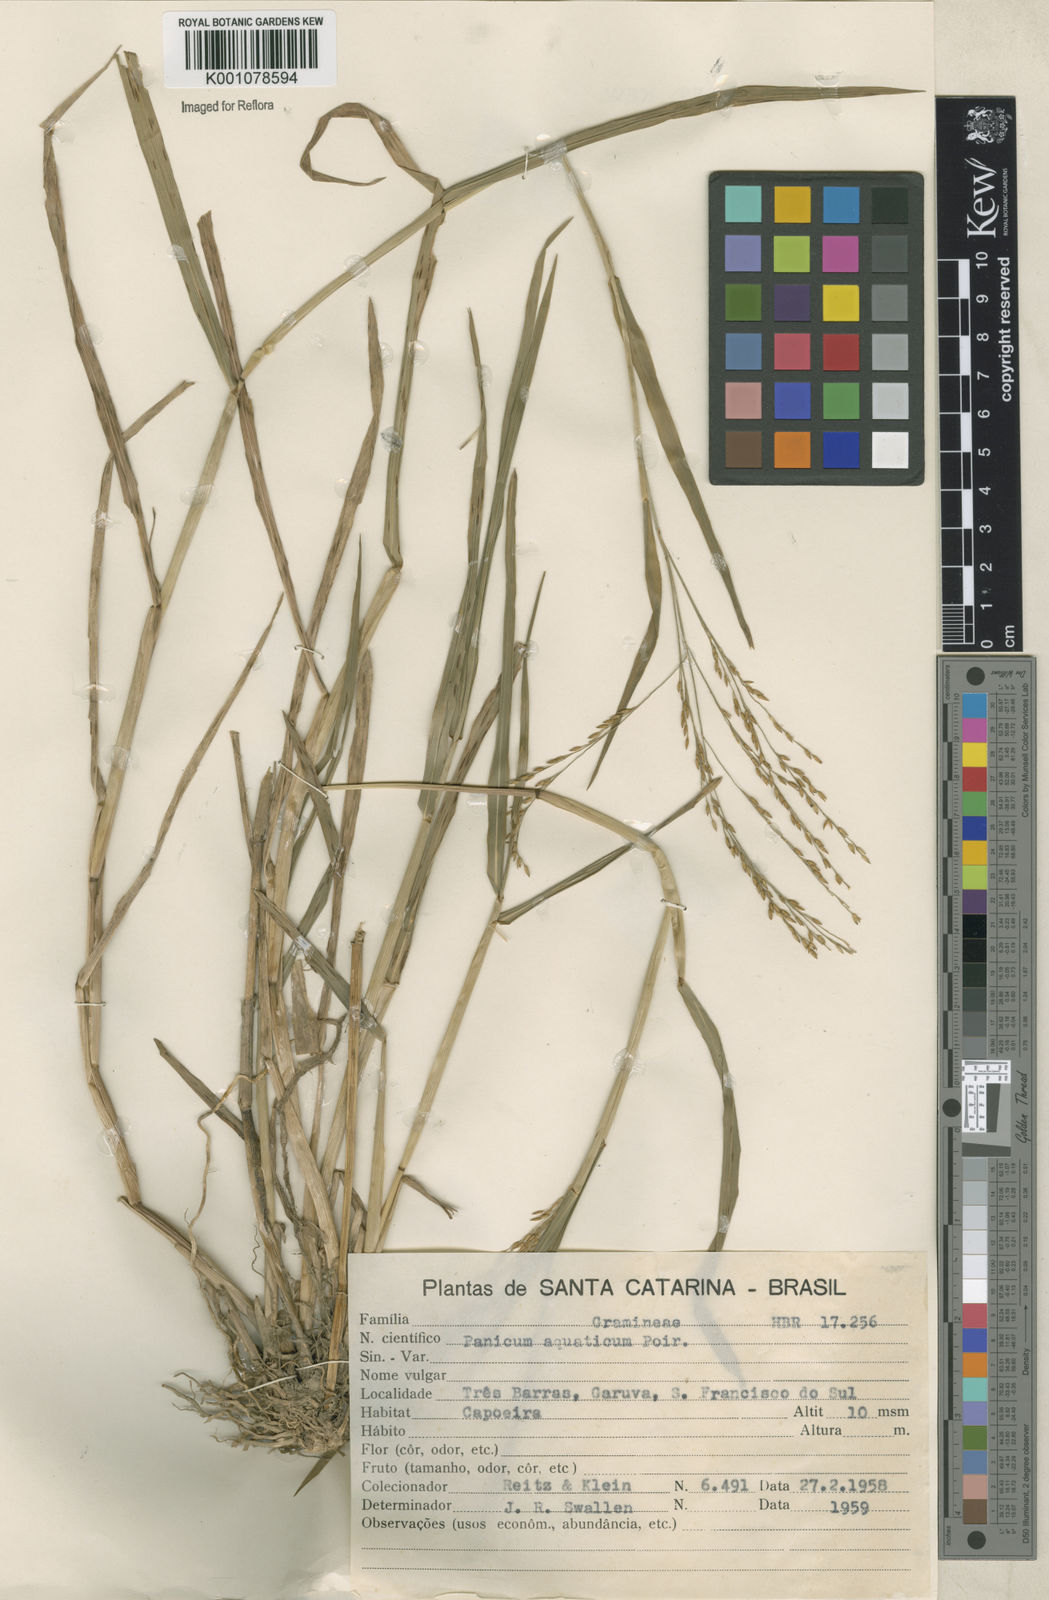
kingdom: Plantae
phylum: Tracheophyta
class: Liliopsida
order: Poales
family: Poaceae
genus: Panicum
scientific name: Panicum dichotomiflorum
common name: Autumn millet
